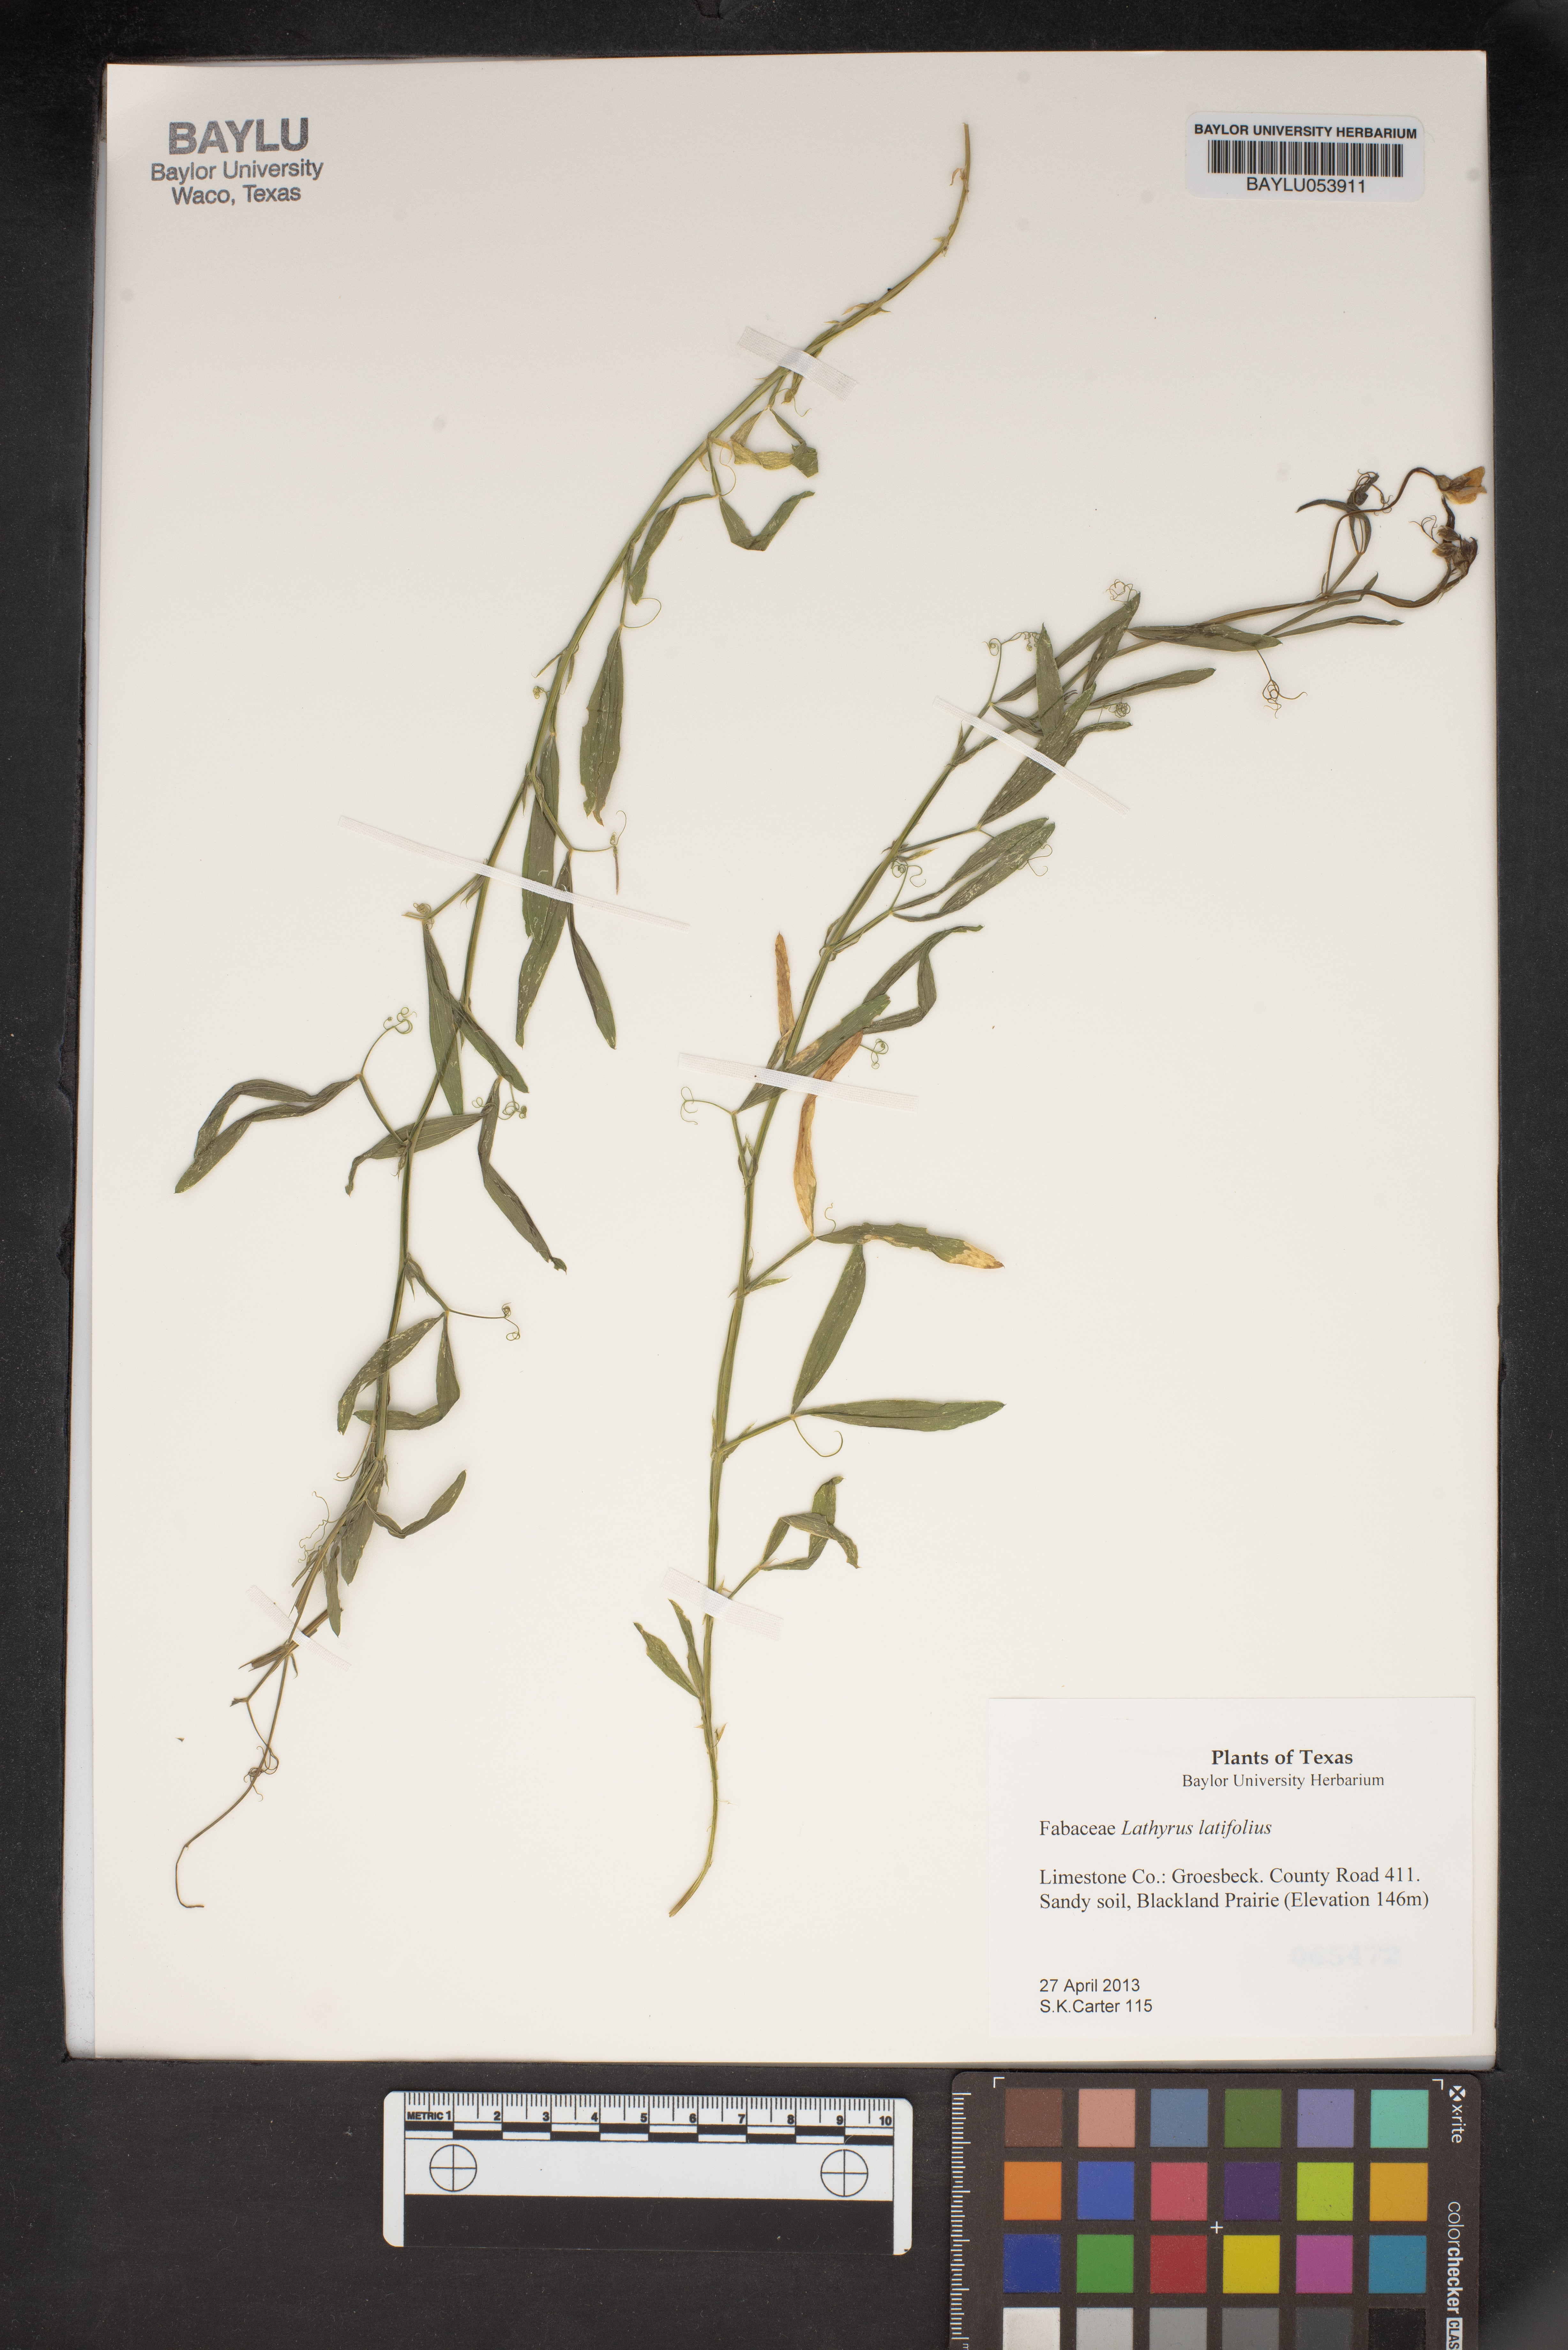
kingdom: Plantae
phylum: Tracheophyta
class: Magnoliopsida
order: Fabales
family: Fabaceae
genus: Lathyrus
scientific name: Lathyrus latifolius
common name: Perennial pea
